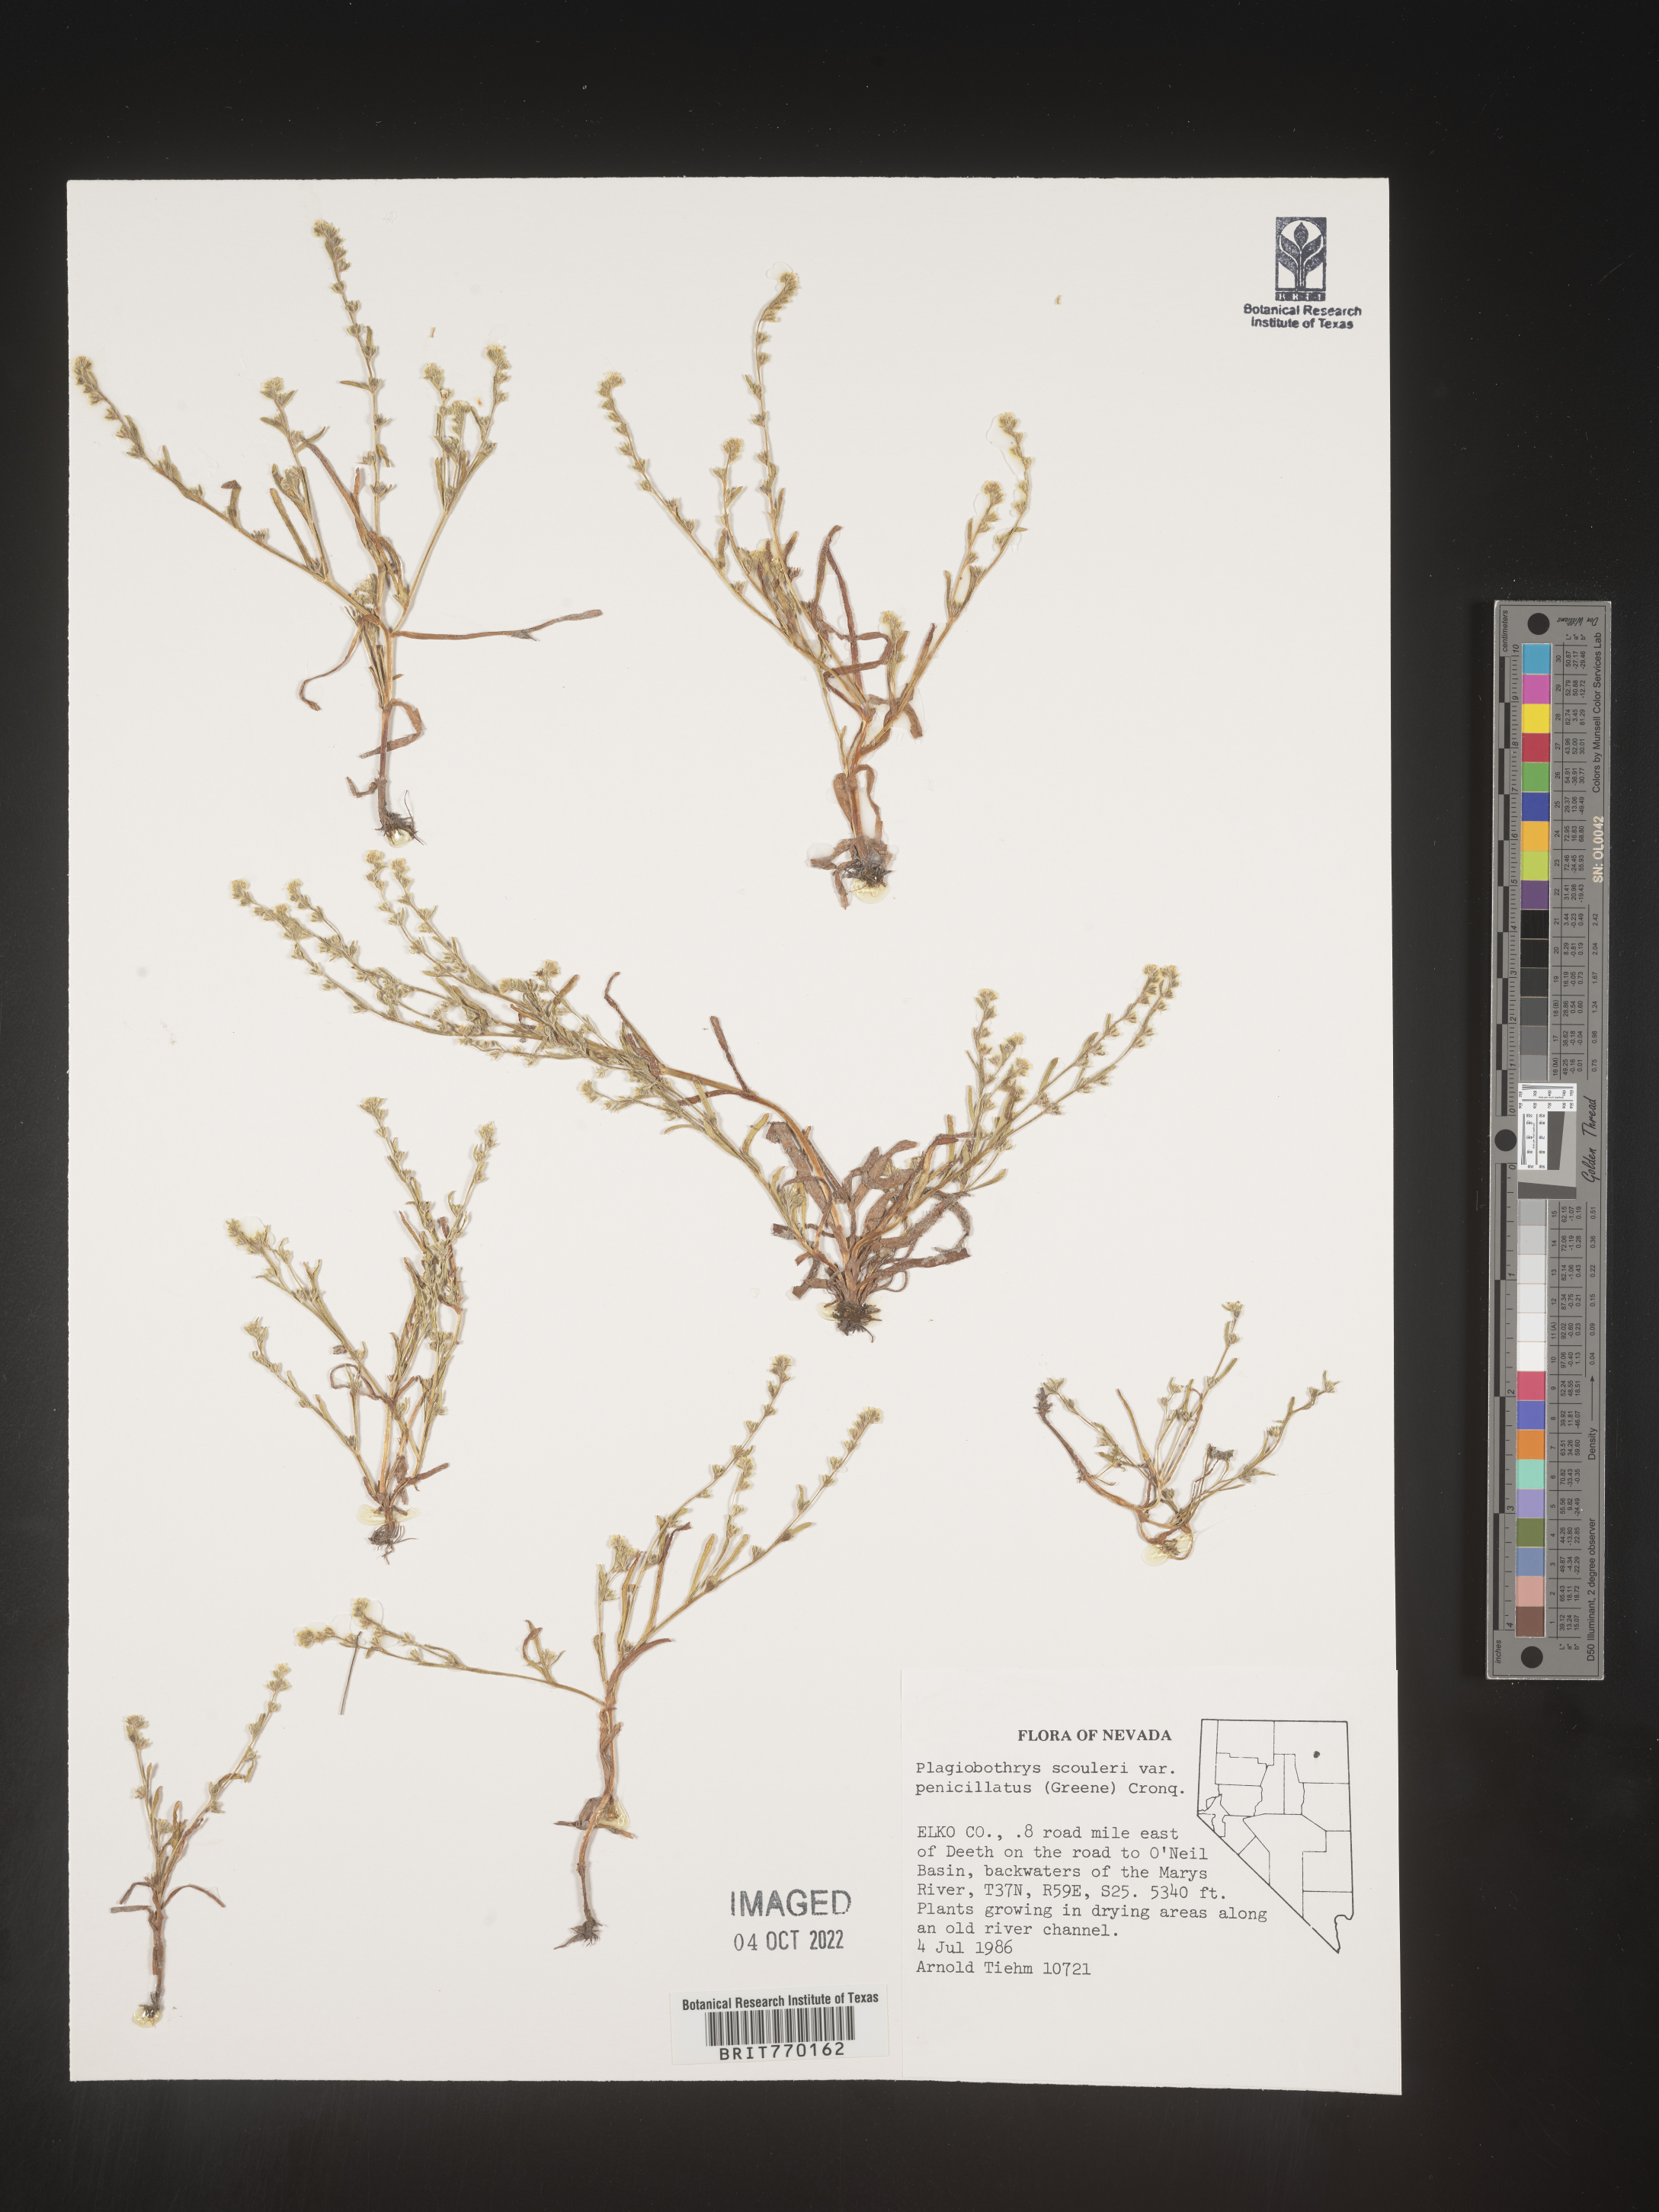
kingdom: Plantae
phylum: Tracheophyta
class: Magnoliopsida
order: Boraginales
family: Boraginaceae
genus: Plagiobothrys
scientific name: Plagiobothrys
